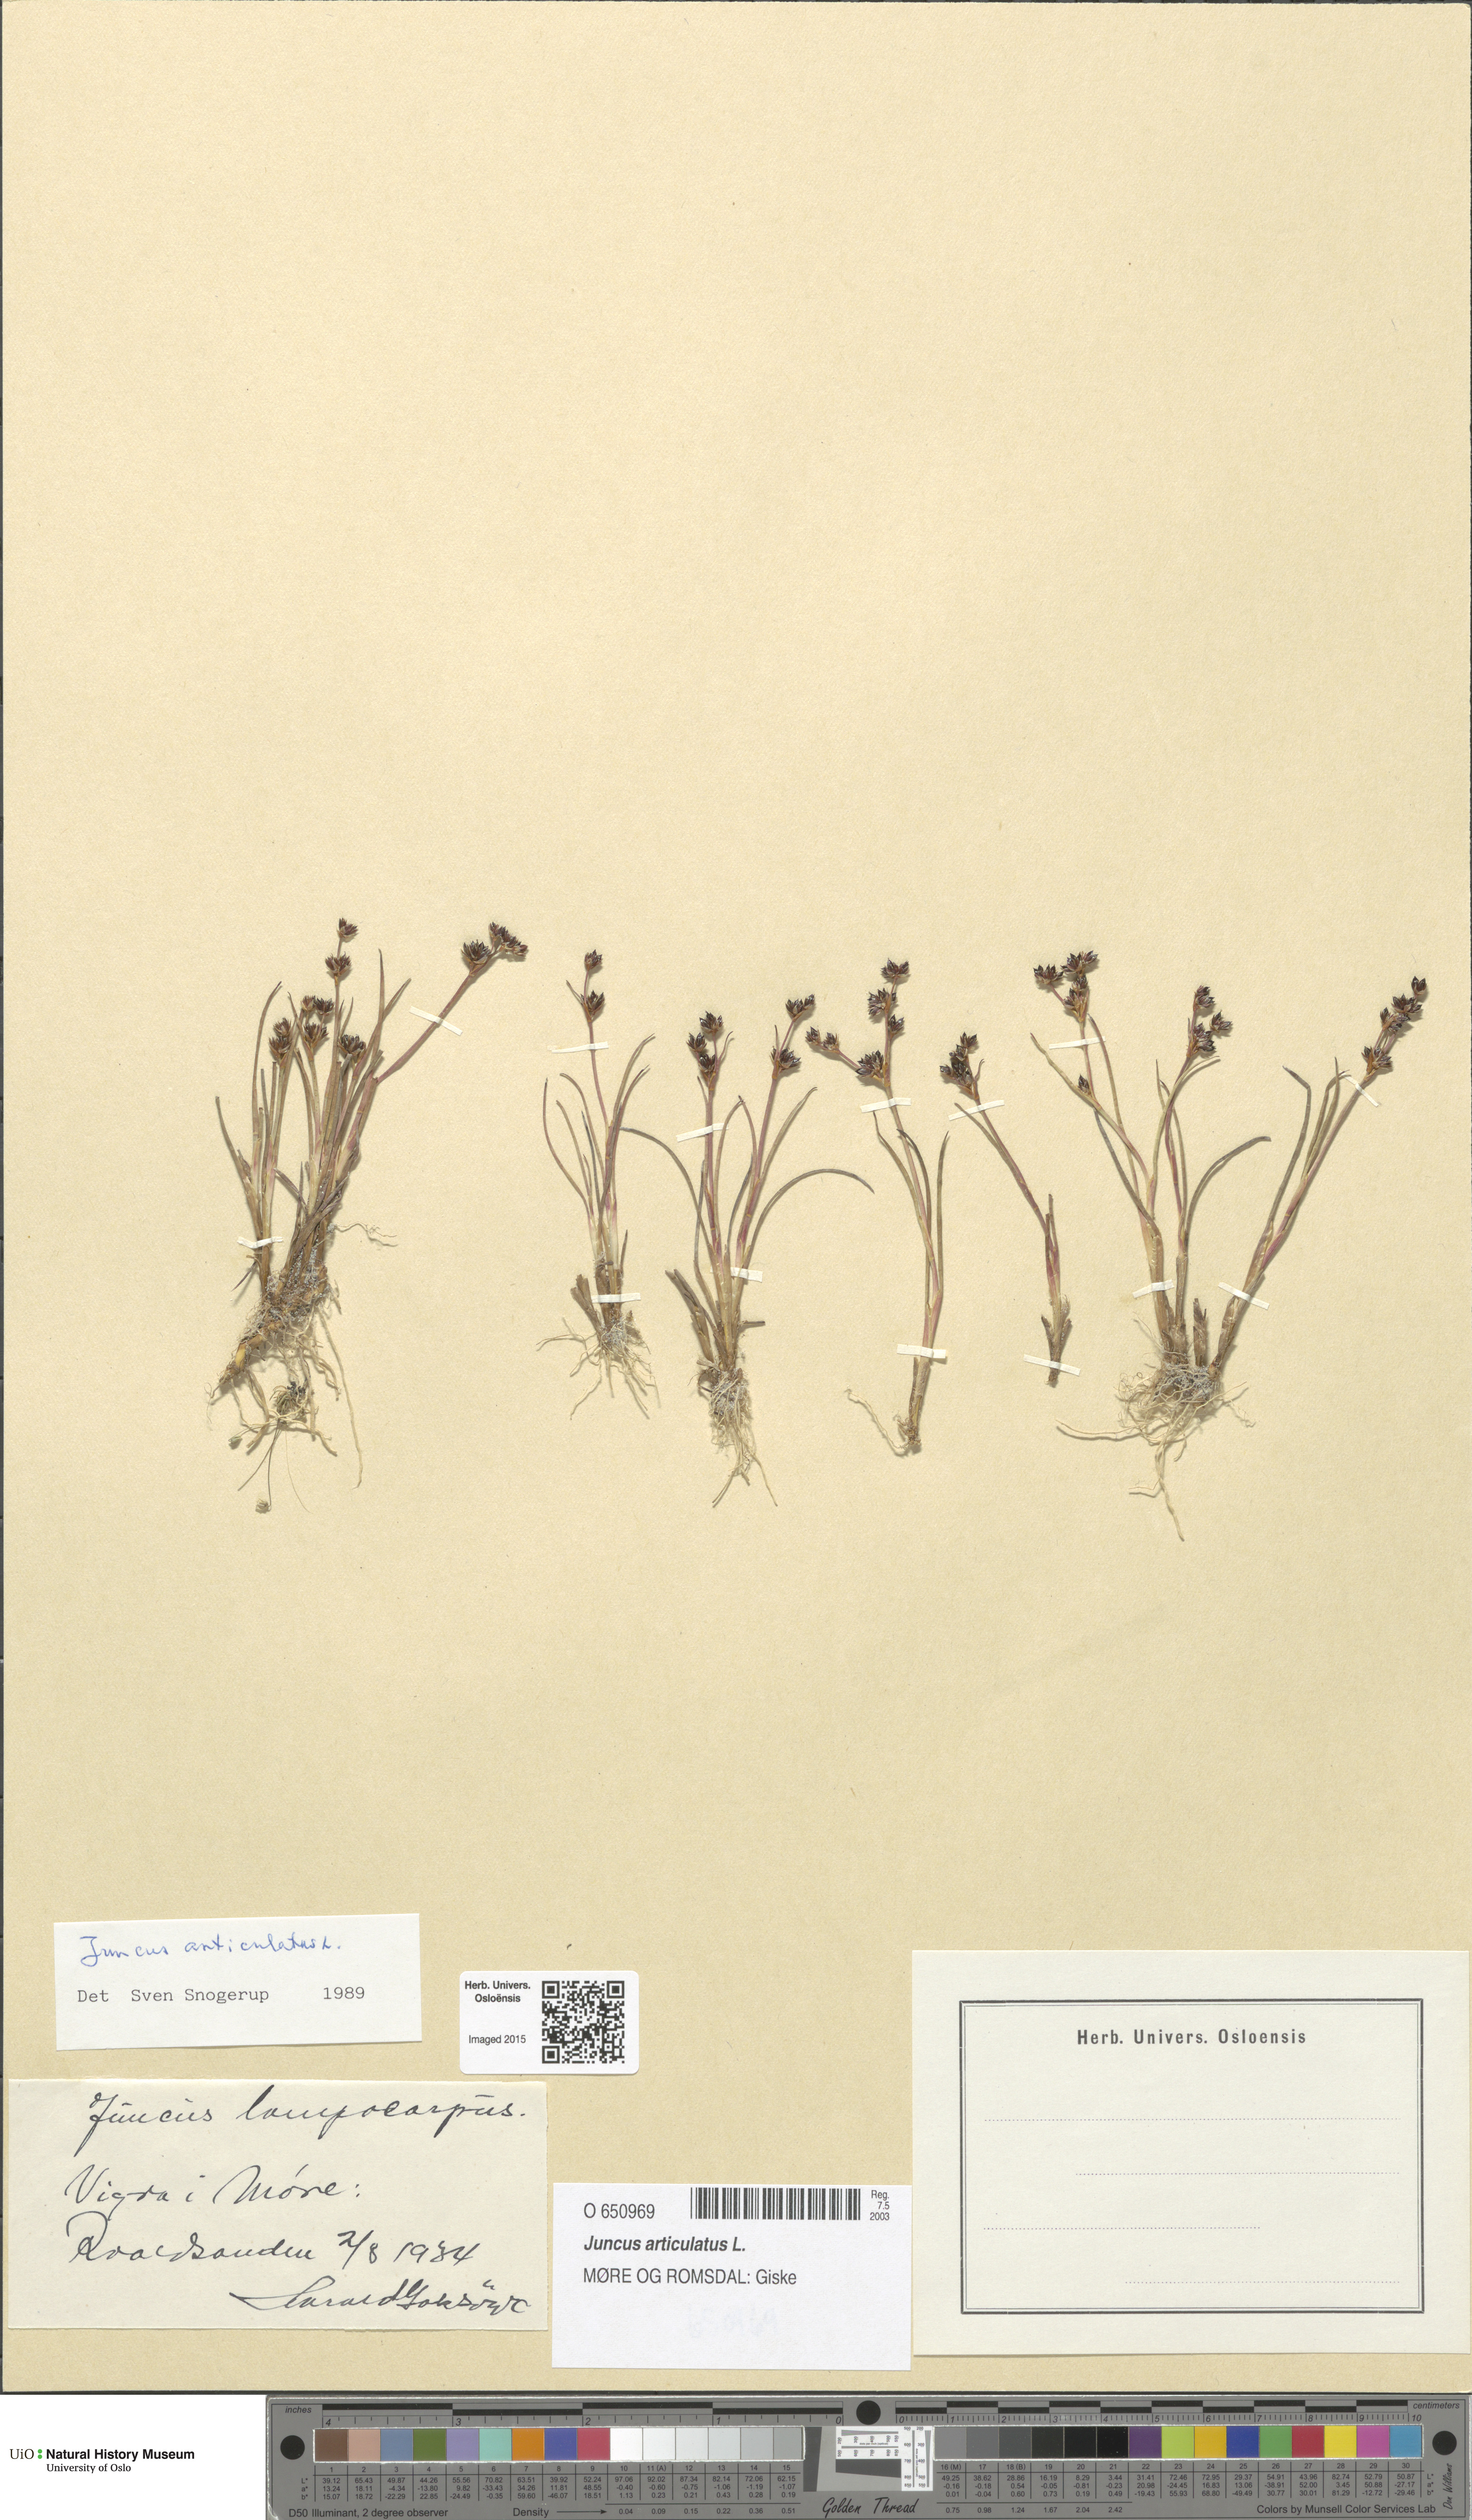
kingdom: Plantae
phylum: Tracheophyta
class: Liliopsida
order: Poales
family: Juncaceae
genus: Juncus
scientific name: Juncus articulatus
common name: Jointed rush
